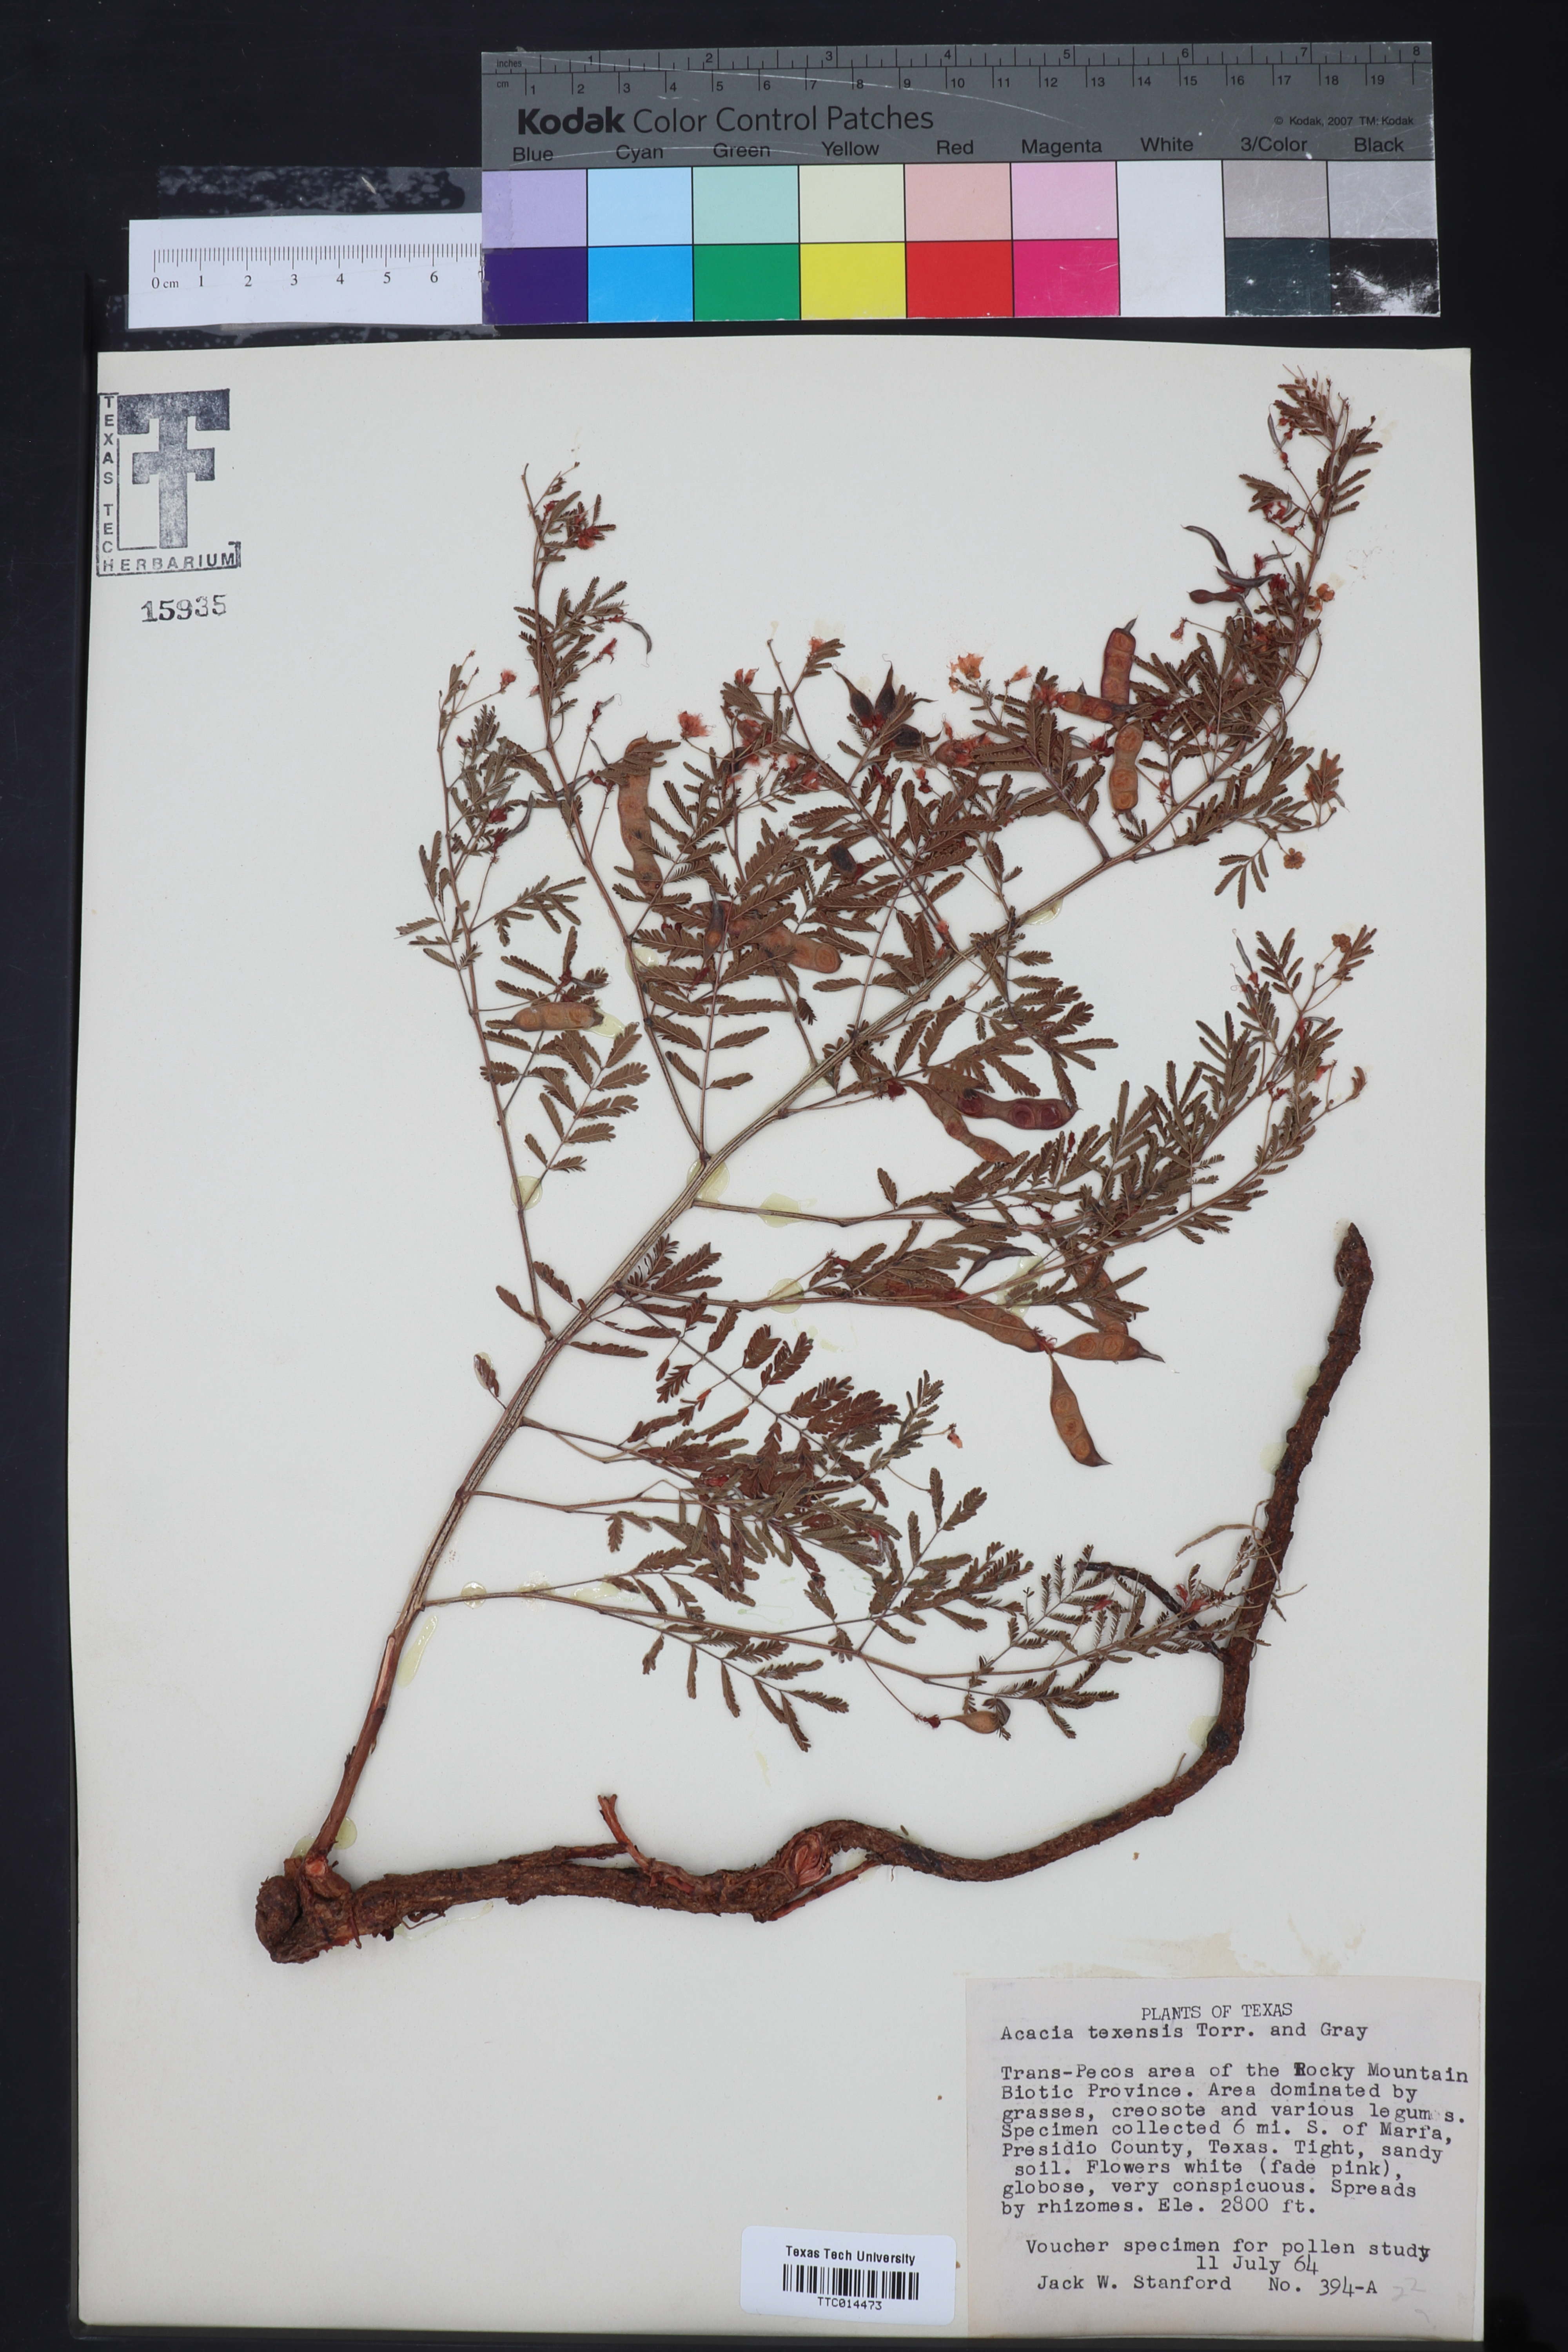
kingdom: Plantae
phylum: Tracheophyta
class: Magnoliopsida
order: Fabales
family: Fabaceae
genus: Acaciella
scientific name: Acaciella angustissima
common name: Prairie acacia
